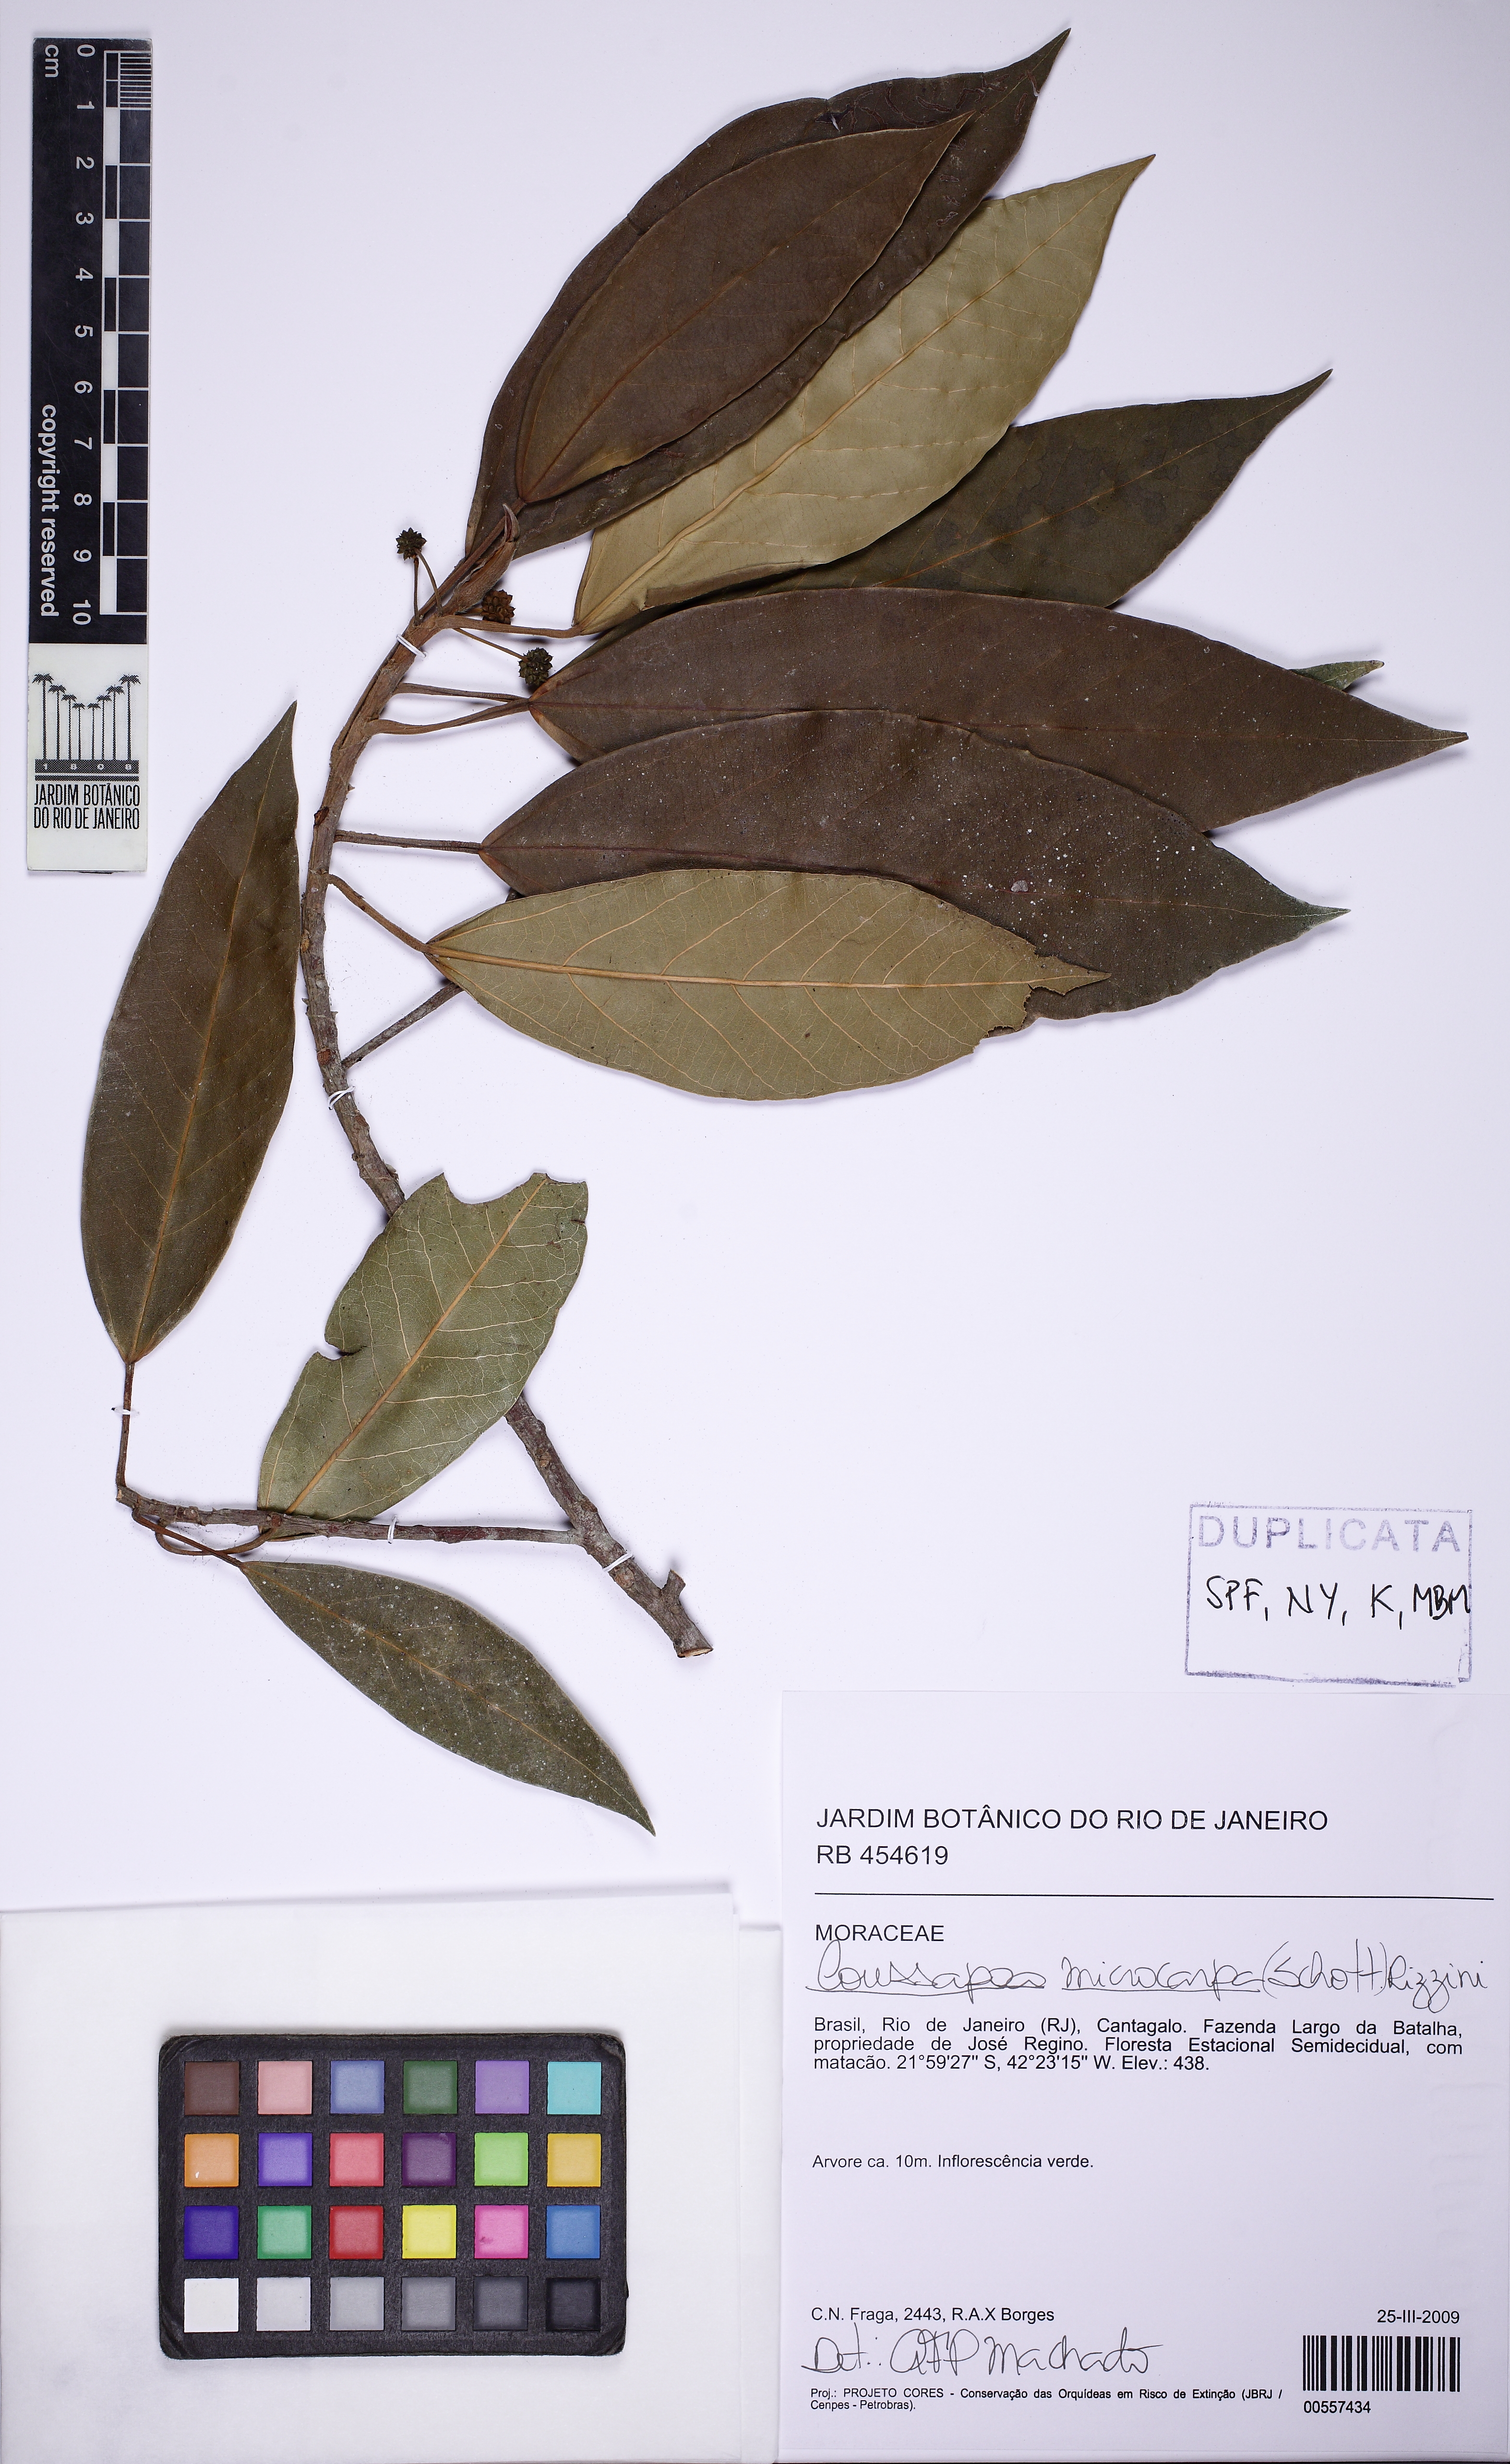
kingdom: Plantae
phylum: Tracheophyta
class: Magnoliopsida
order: Rosales
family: Urticaceae
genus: Coussapoa
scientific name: Coussapoa microcarpa
